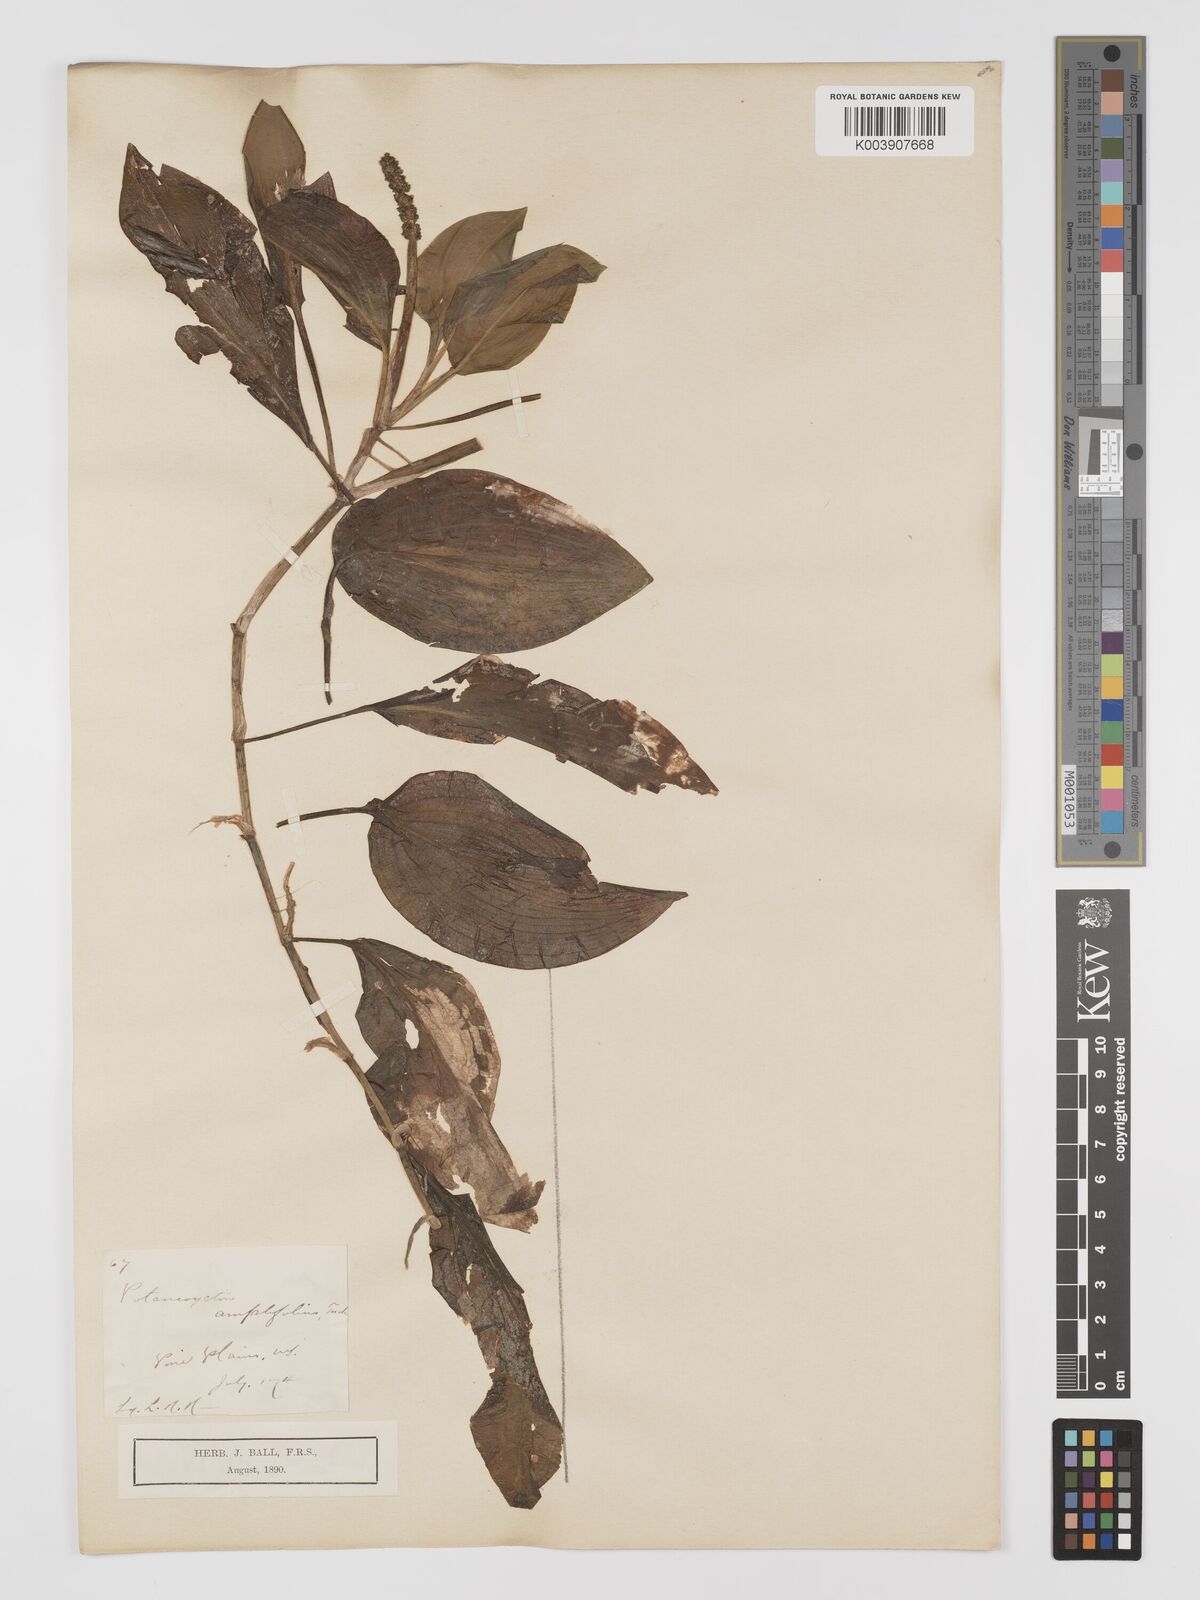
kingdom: Plantae
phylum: Tracheophyta
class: Liliopsida
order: Alismatales
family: Potamogetonaceae
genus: Potamogeton
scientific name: Potamogeton amplifolius
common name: Broad-leaved pondweed
